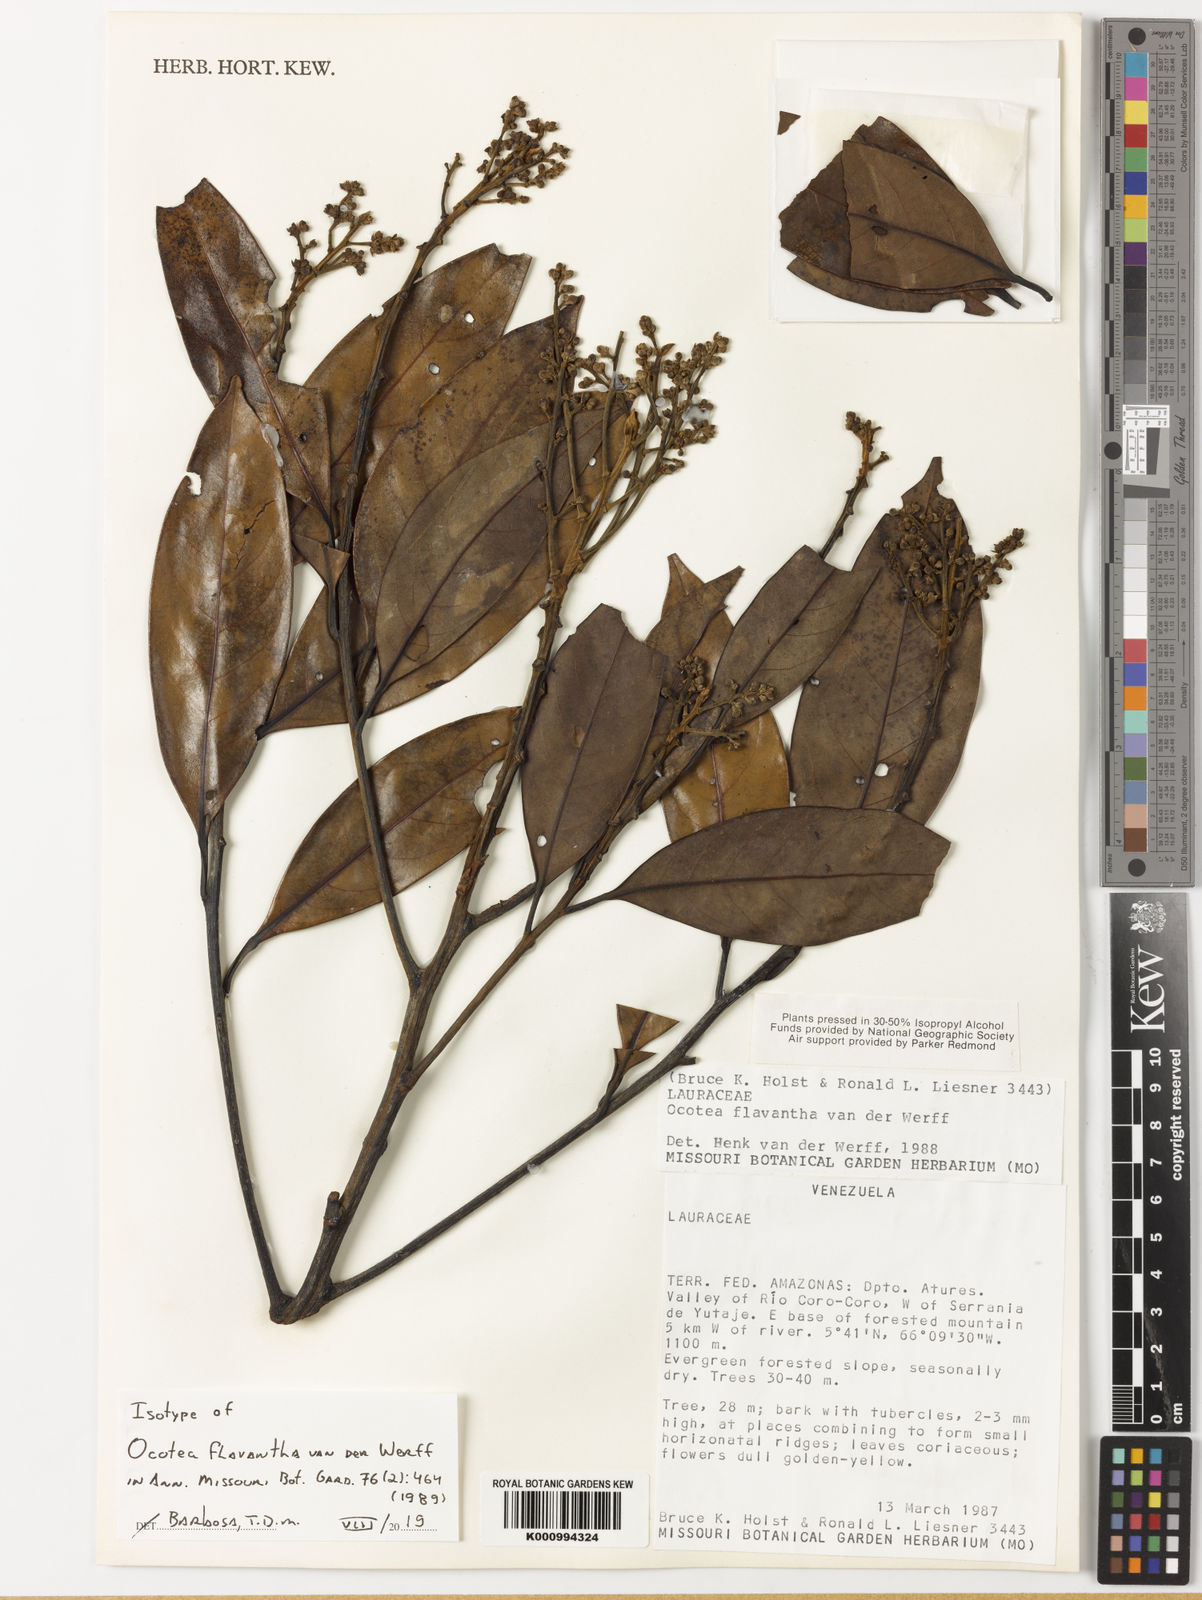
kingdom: Plantae
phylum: Tracheophyta
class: Magnoliopsida
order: Laurales
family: Lauraceae
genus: Ocotea
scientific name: Ocotea flavantha
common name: Yellowishflower ocotea
